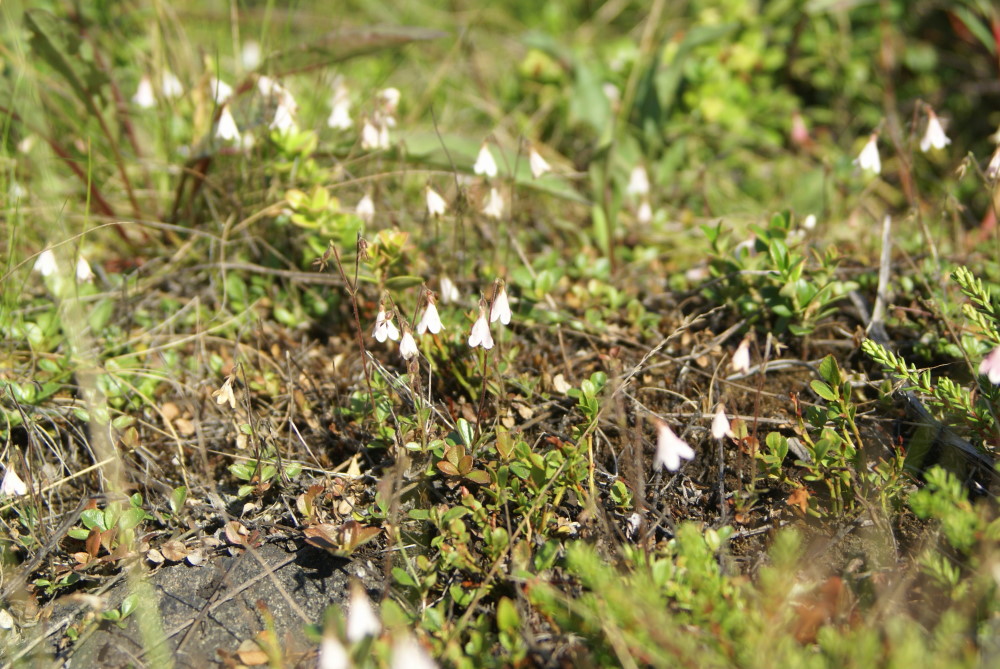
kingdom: Plantae
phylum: Tracheophyta
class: Magnoliopsida
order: Dipsacales
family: Caprifoliaceae
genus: Linnaea
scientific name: Linnaea borealis
